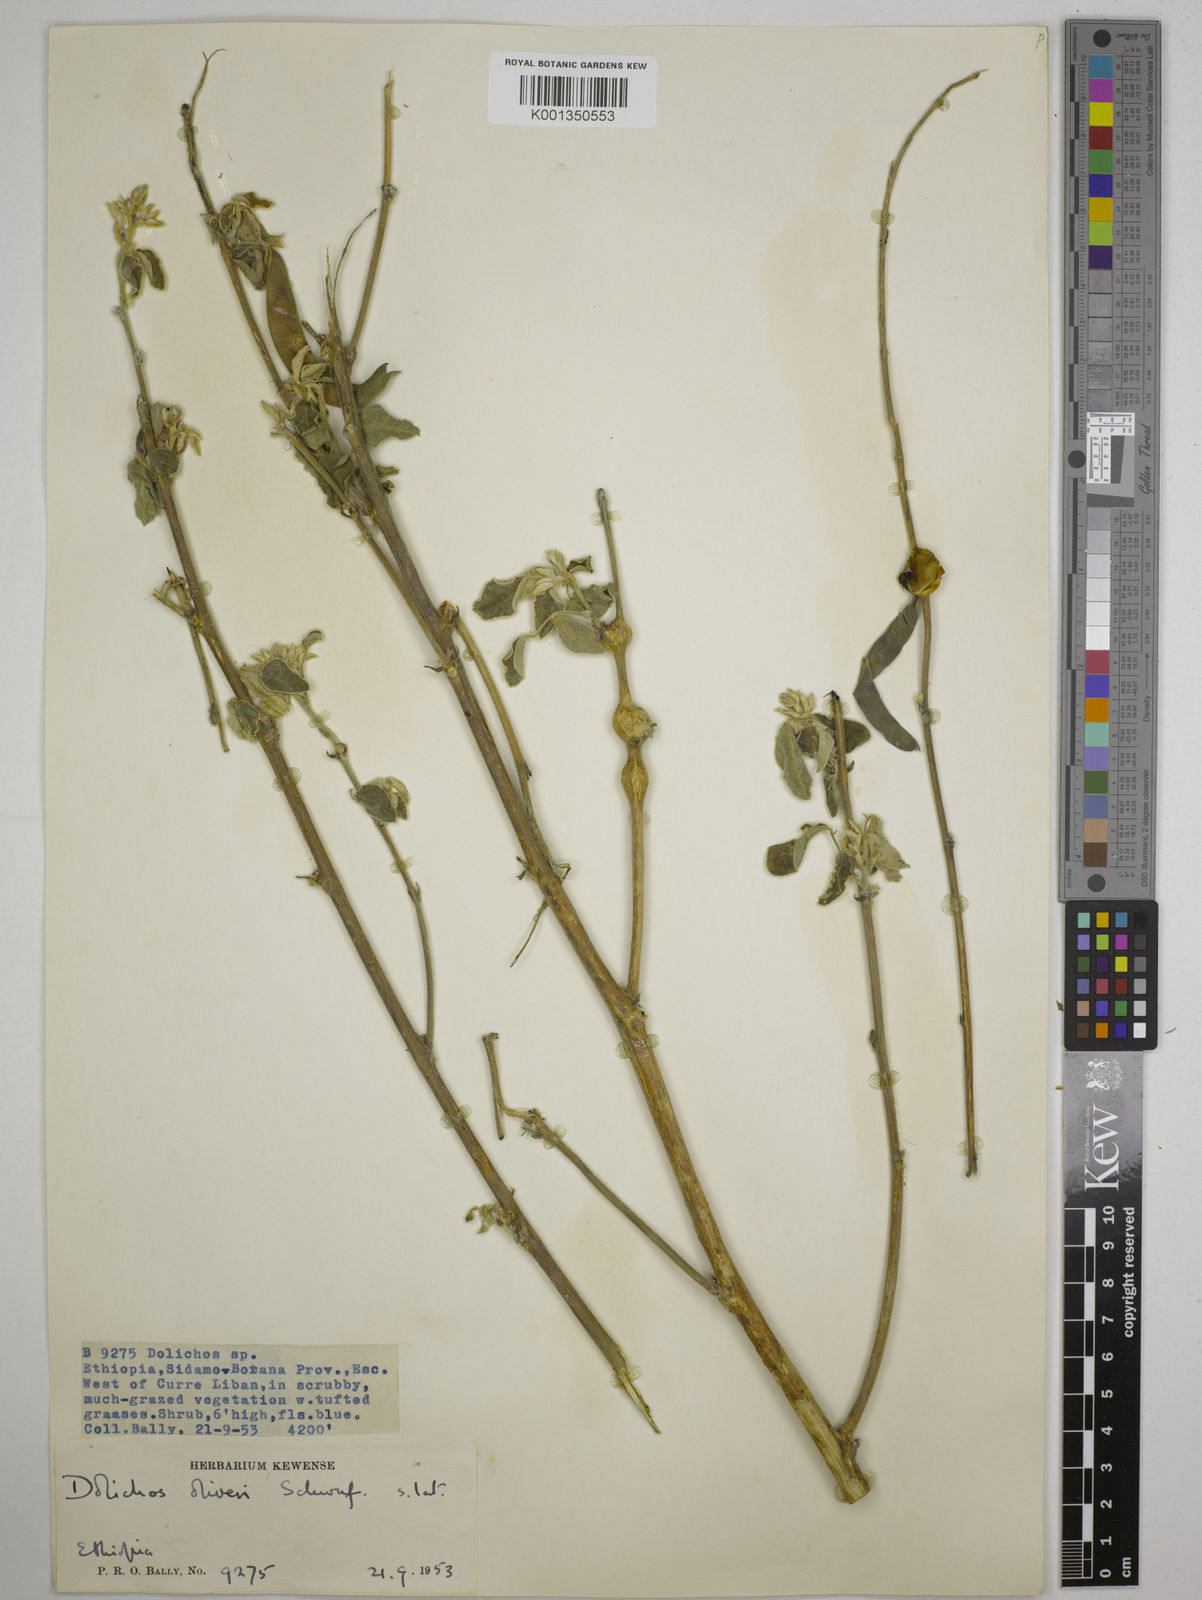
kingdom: Plantae
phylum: Tracheophyta
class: Magnoliopsida
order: Fabales
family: Fabaceae
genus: Dolichos
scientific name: Dolichos oliveri
